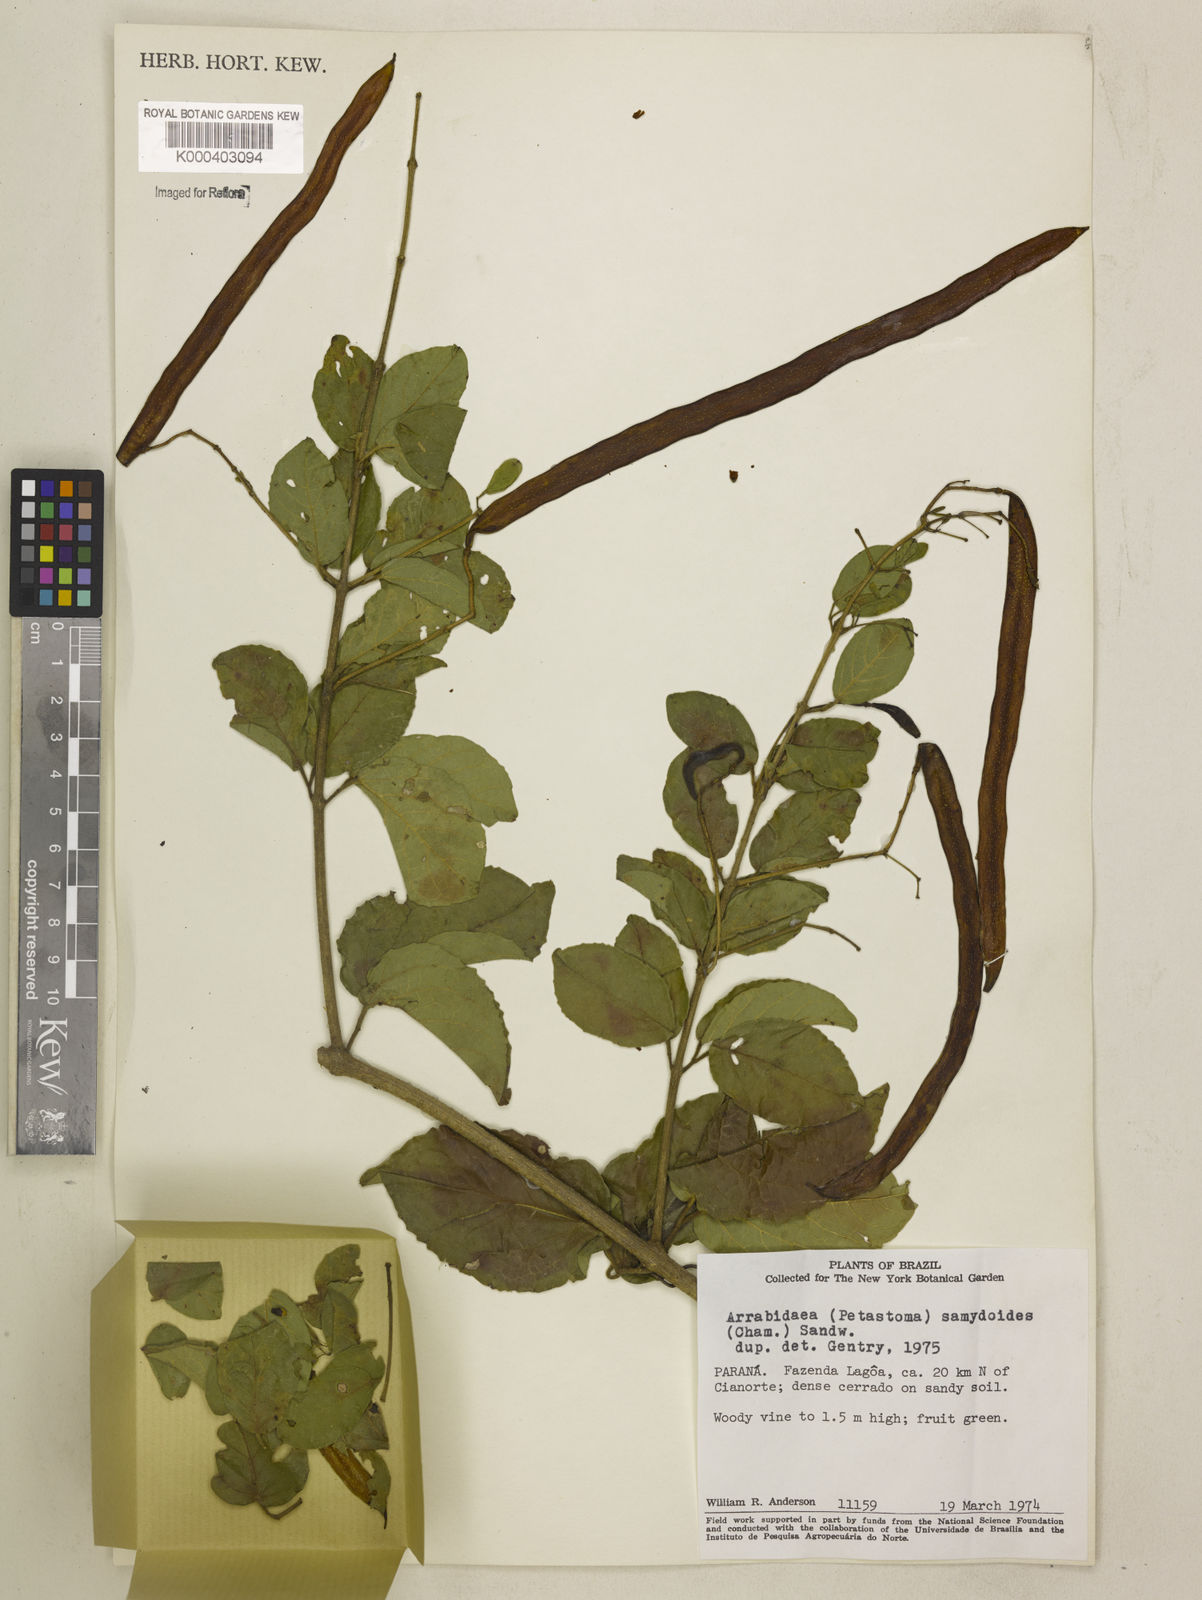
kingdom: Plantae
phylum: Tracheophyta
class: Magnoliopsida
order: Lamiales
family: Bignoniaceae
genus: Fridericia
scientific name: Fridericia samydoides
